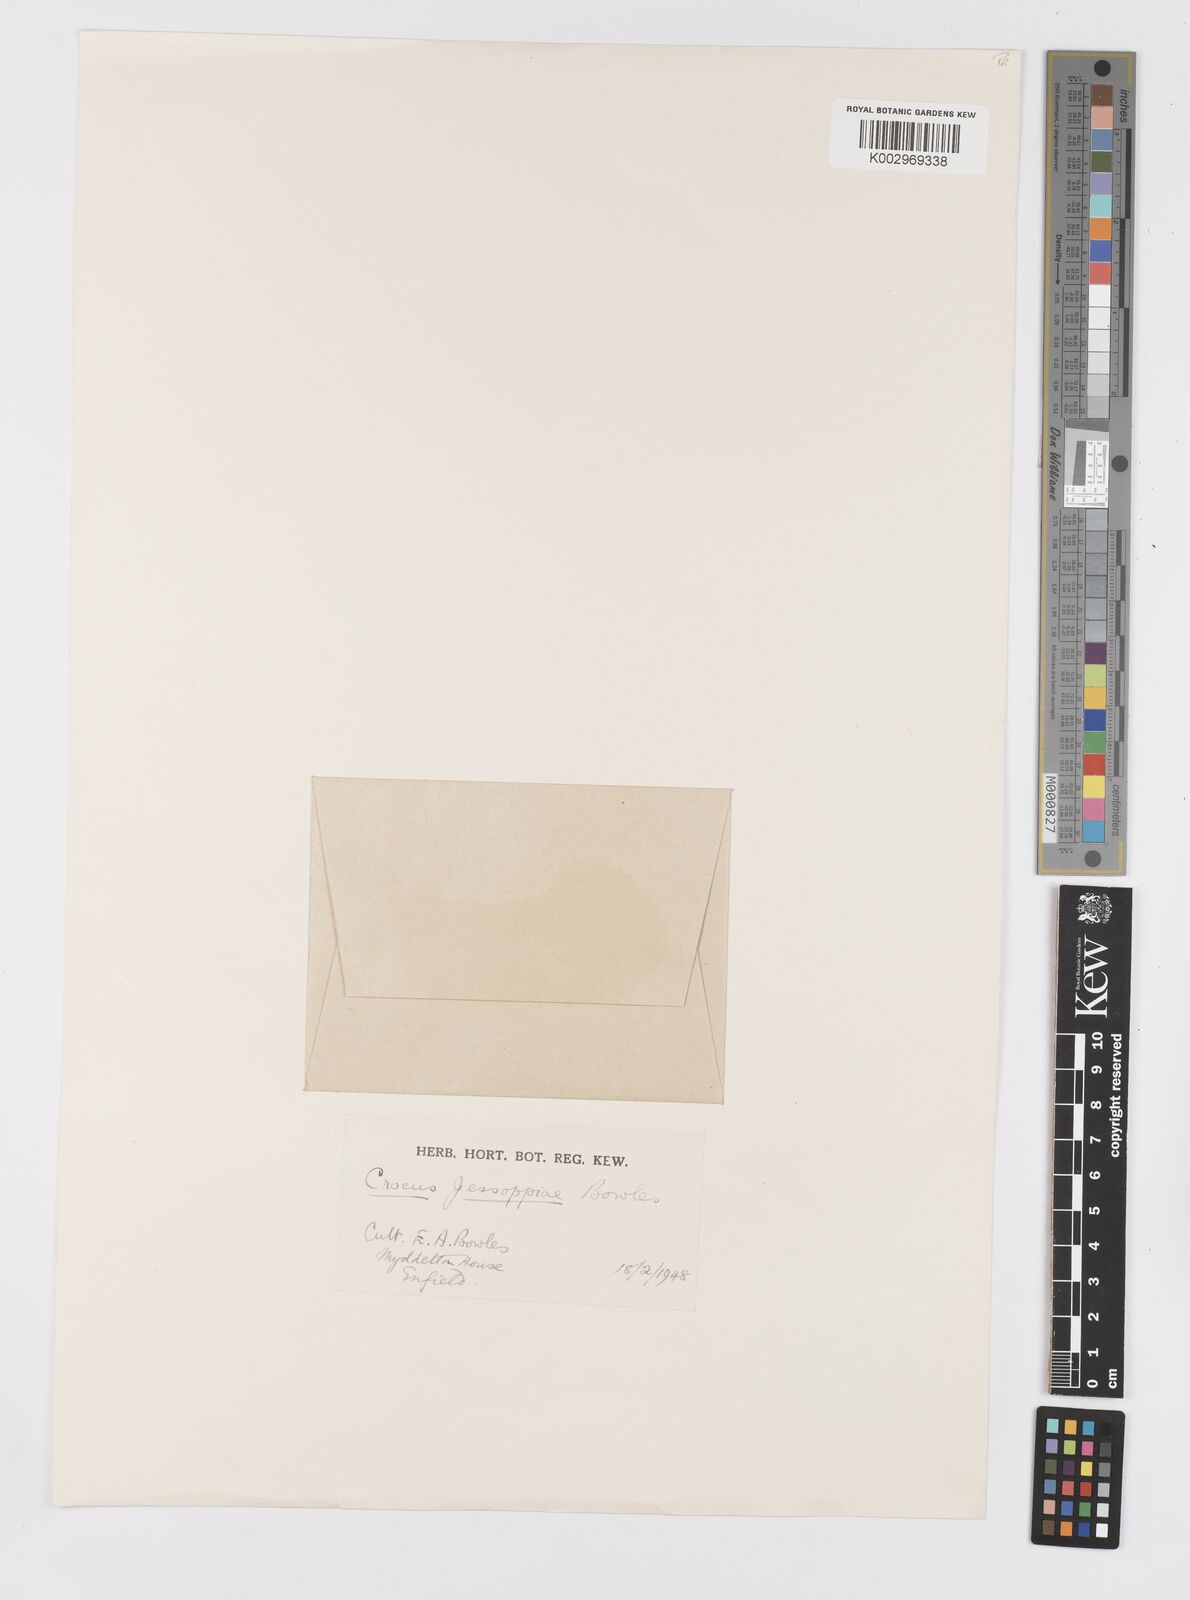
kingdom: Plantae
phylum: Tracheophyta
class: Liliopsida
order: Asparagales
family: Iridaceae
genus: Crocus
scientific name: Crocus jessoppiae
